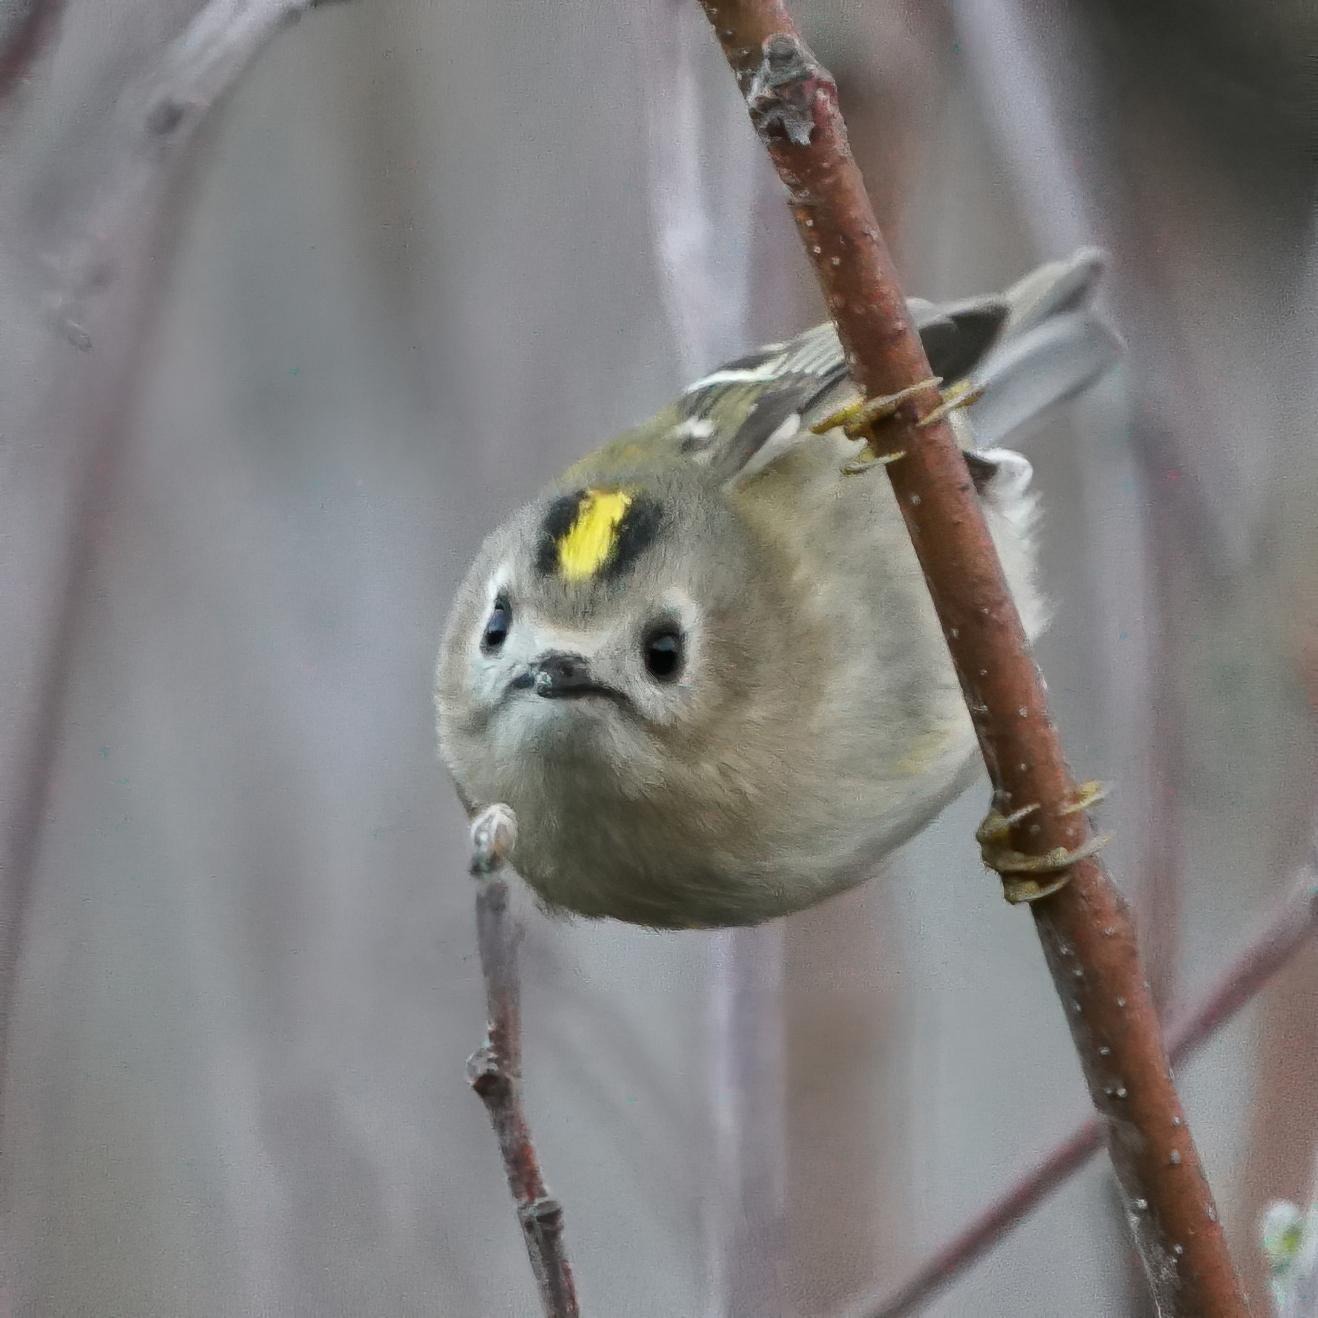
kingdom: Animalia
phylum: Chordata
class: Aves
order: Passeriformes
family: Regulidae
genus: Regulus
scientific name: Regulus regulus
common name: Fuglekonge
